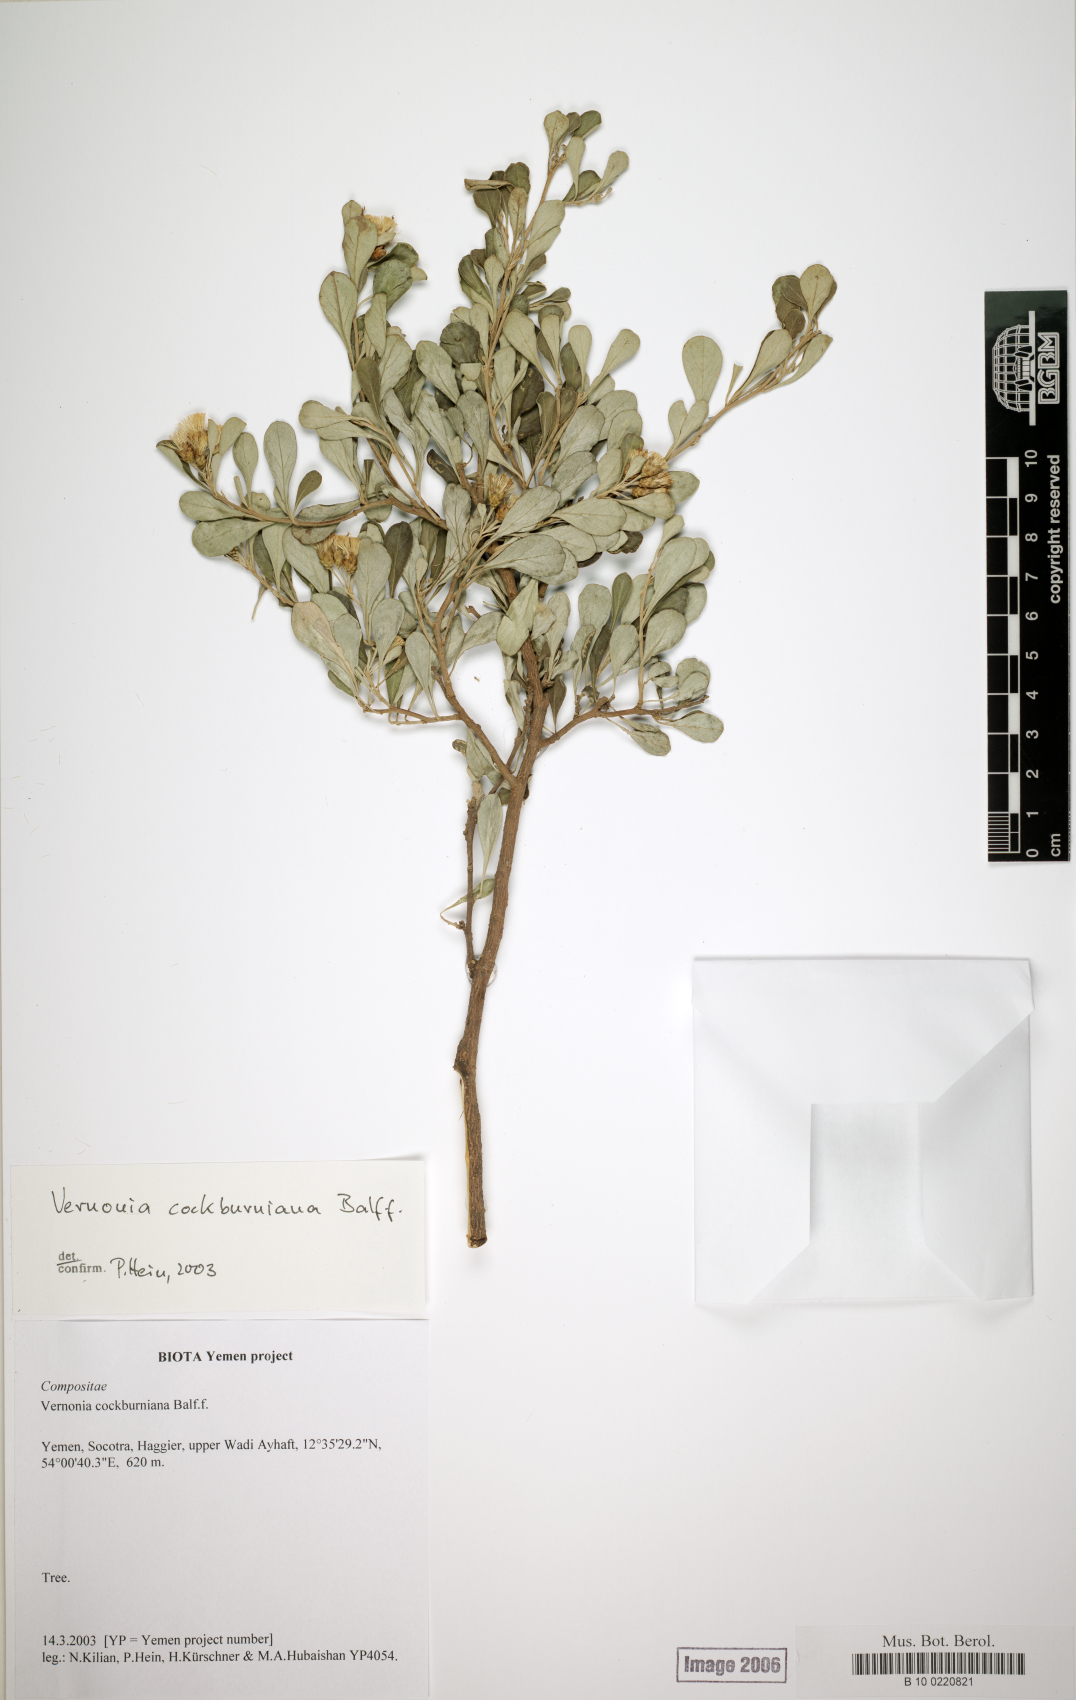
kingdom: Plantae
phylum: Tracheophyta
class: Magnoliopsida
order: Asterales
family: Asteraceae
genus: Vernonia
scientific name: Vernonia cockburniana
